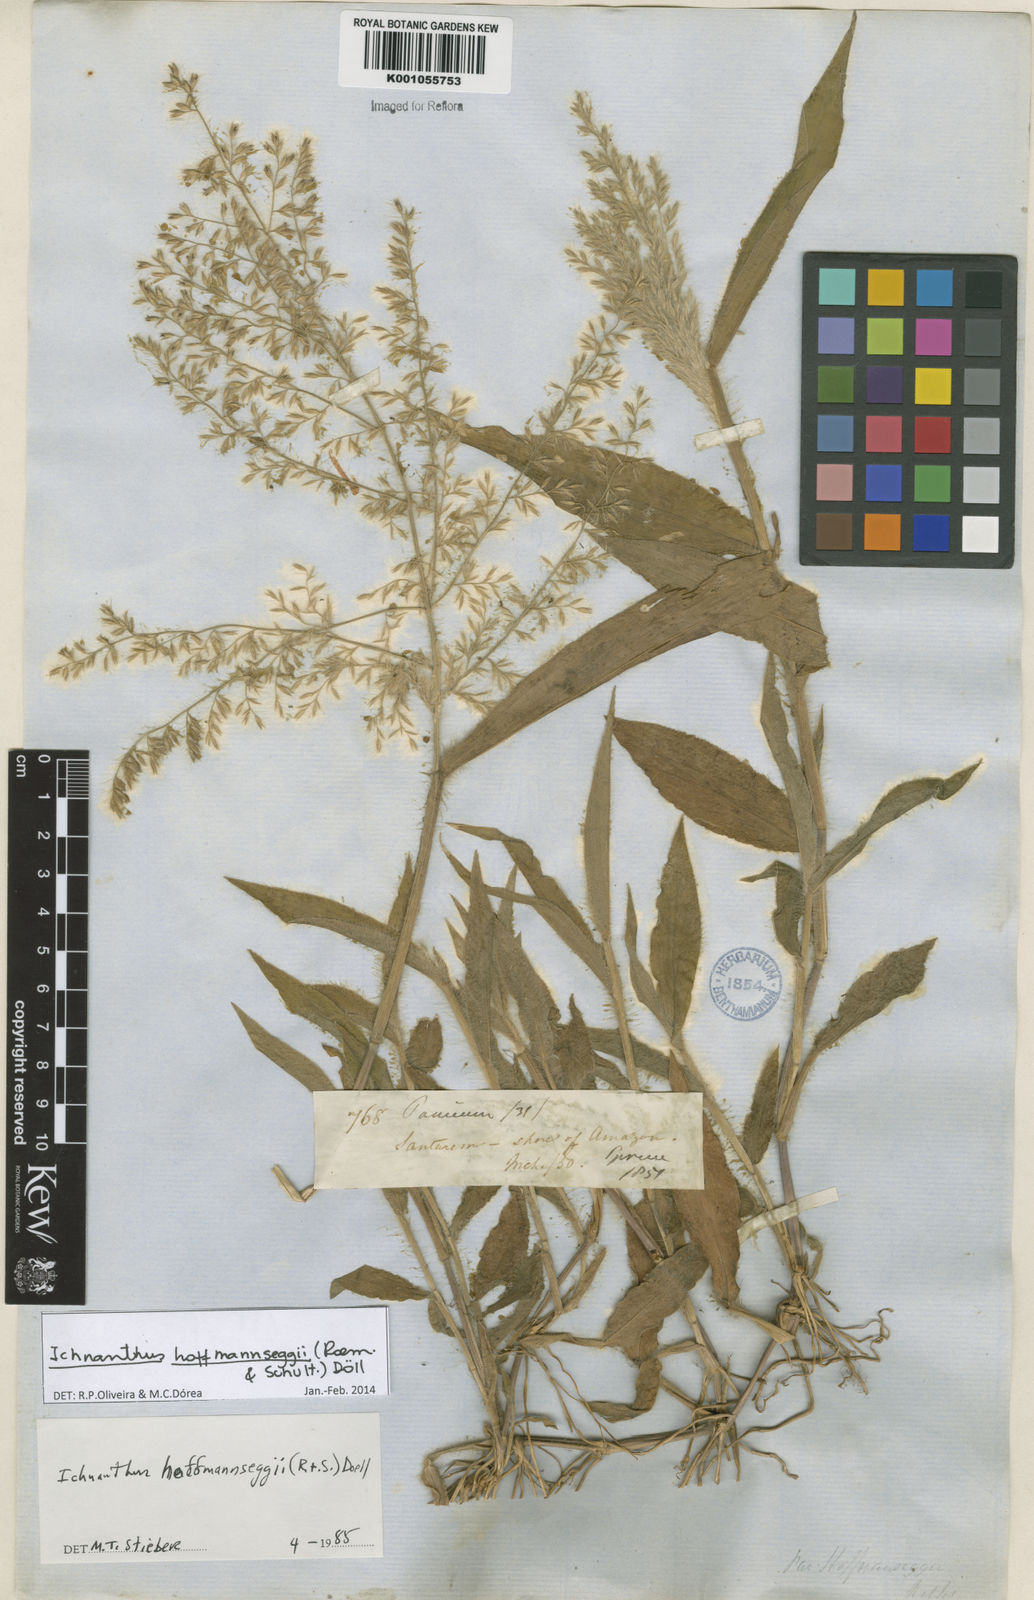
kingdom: Plantae
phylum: Tracheophyta
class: Liliopsida
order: Poales
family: Poaceae
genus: Ichnanthus
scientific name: Ichnanthus
